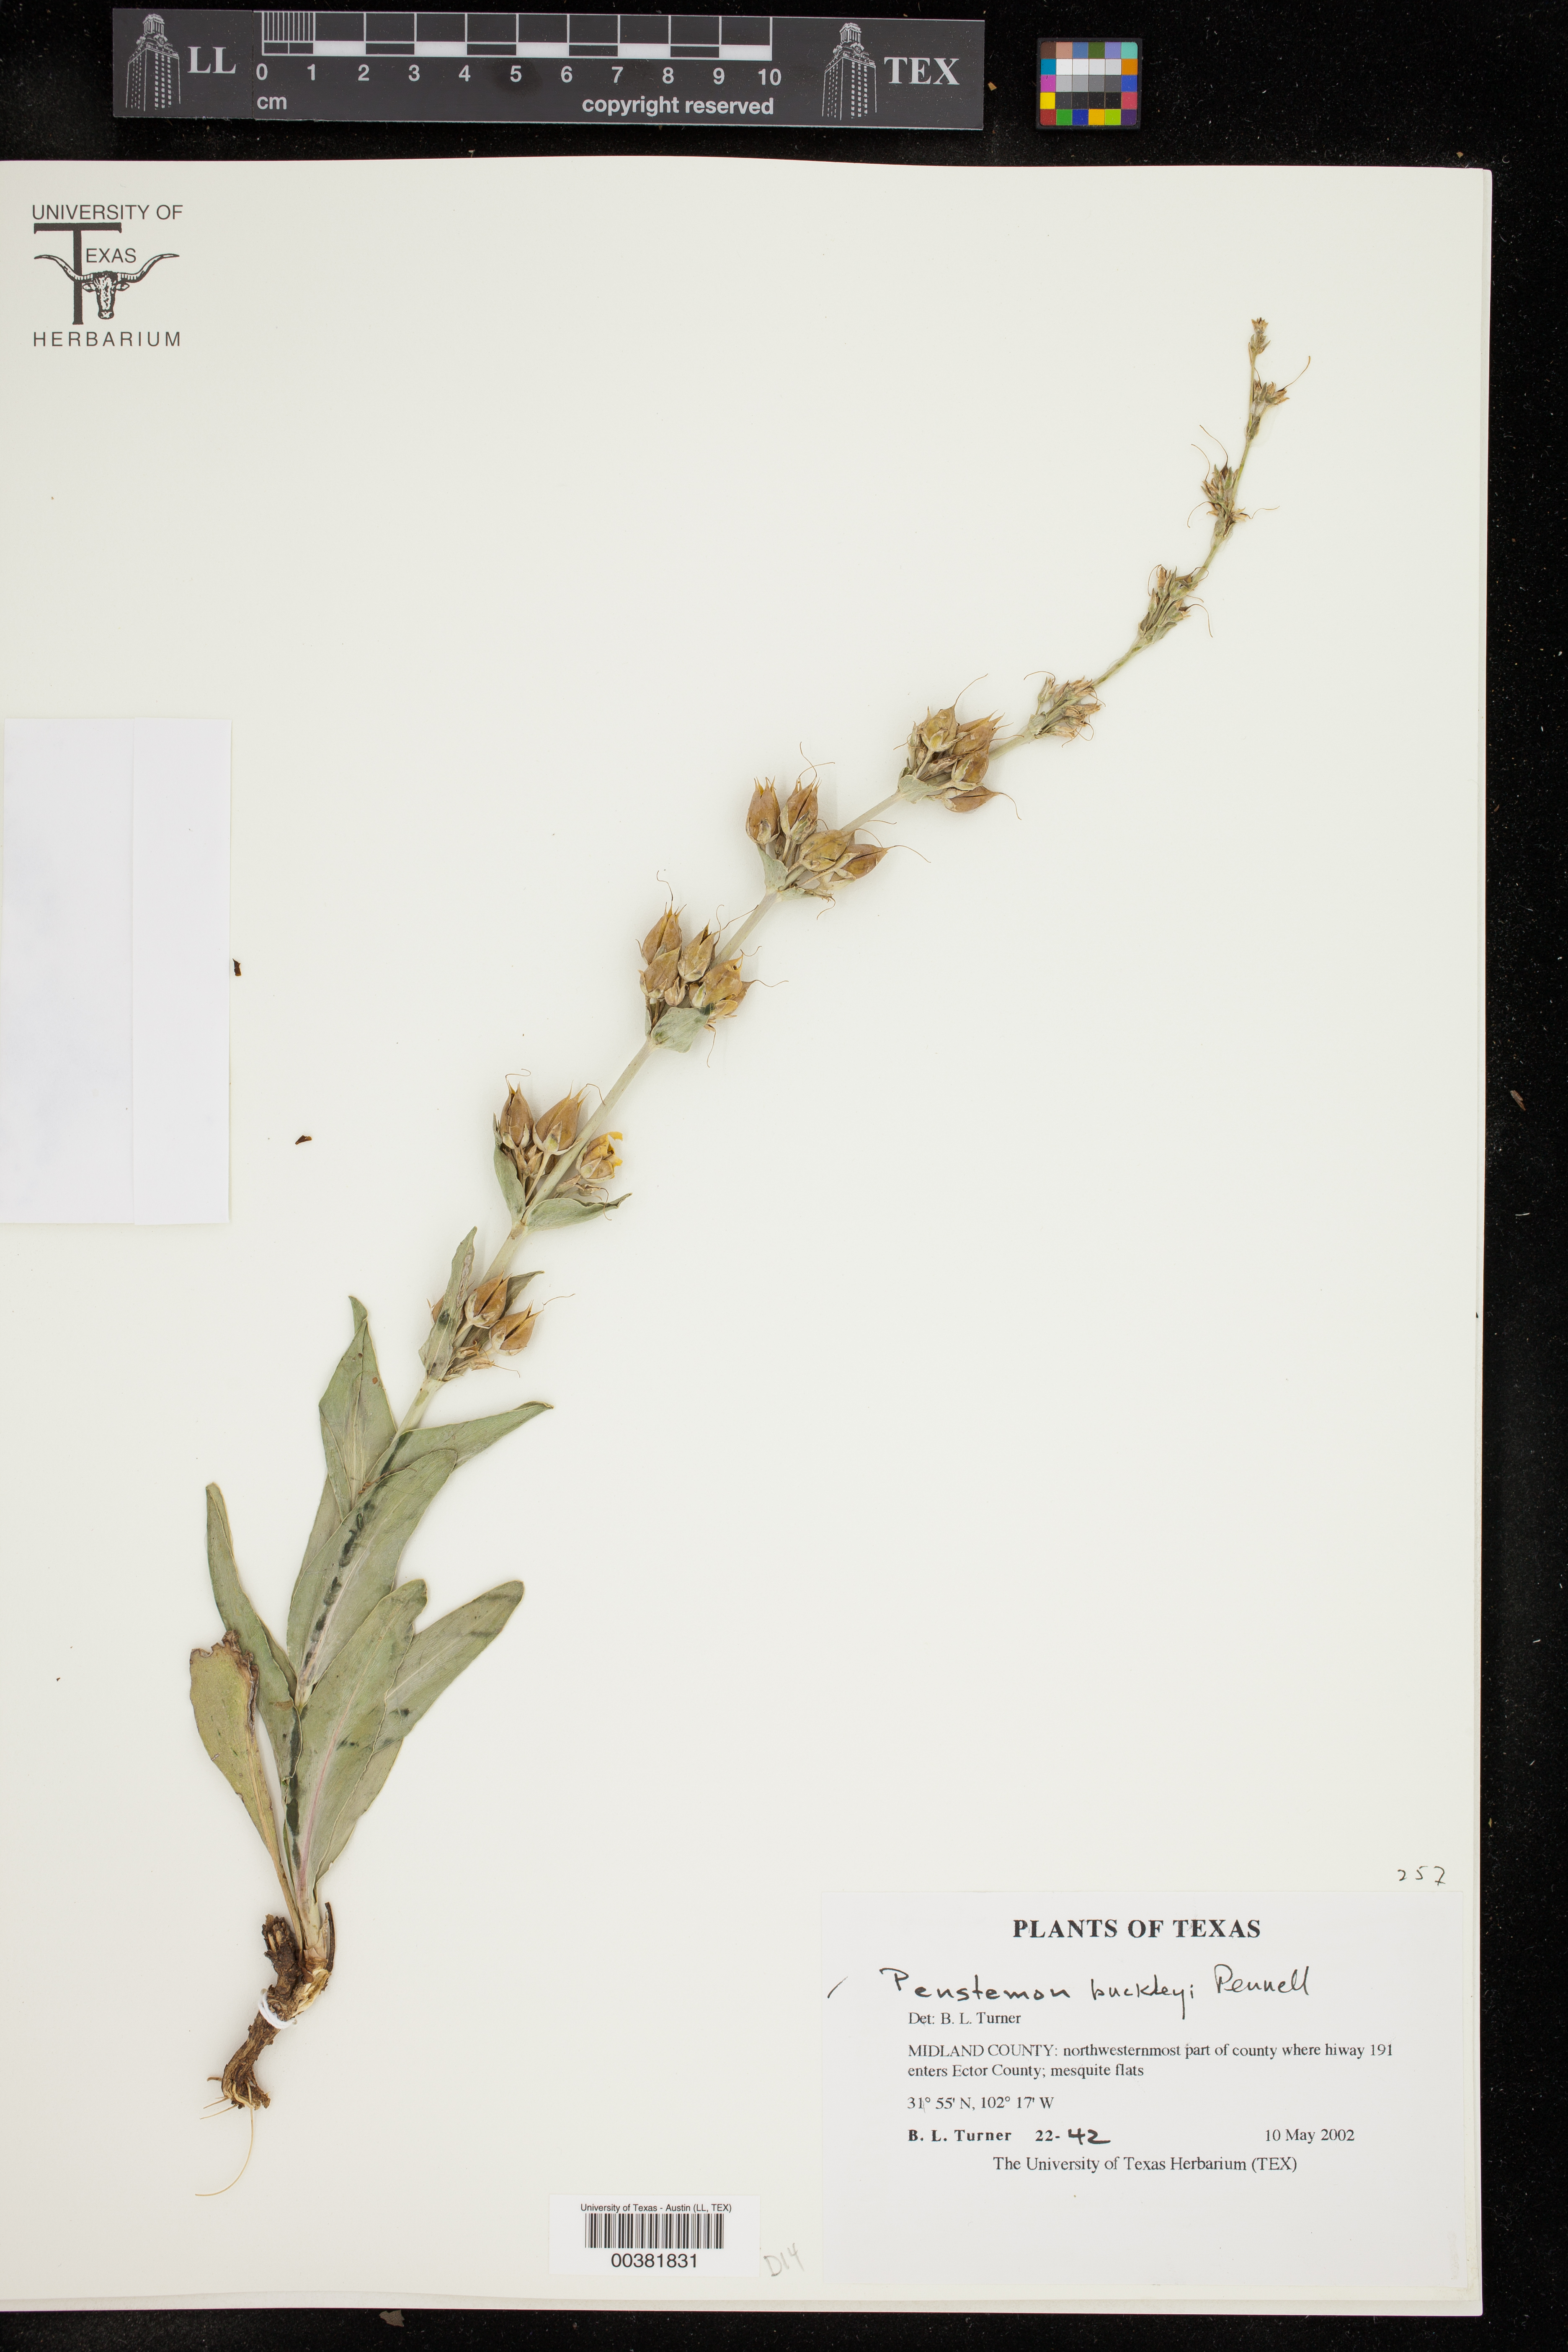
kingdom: Plantae
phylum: Tracheophyta
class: Magnoliopsida
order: Lamiales
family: Plantaginaceae
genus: Penstemon
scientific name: Penstemon buckleyi
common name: Buckley's penstemon
